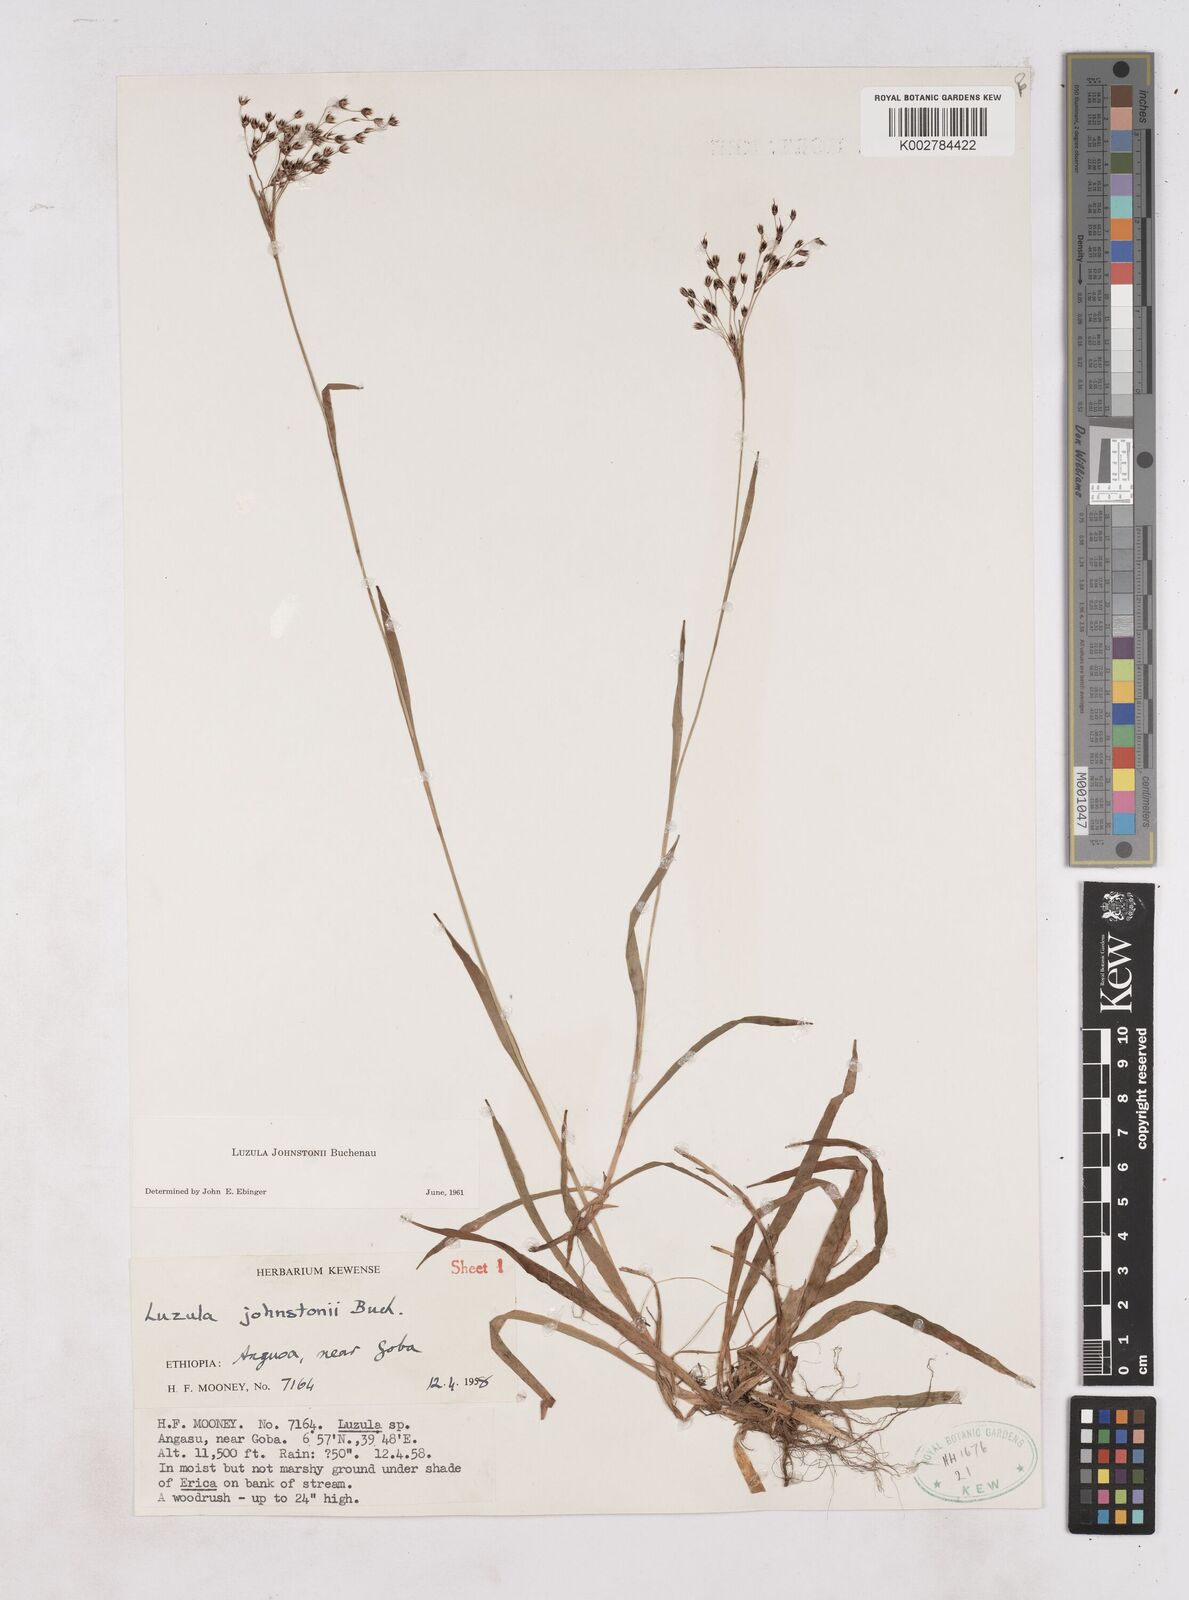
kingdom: Plantae
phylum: Tracheophyta
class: Liliopsida
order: Poales
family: Juncaceae
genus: Luzula
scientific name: Luzula johnstonii
